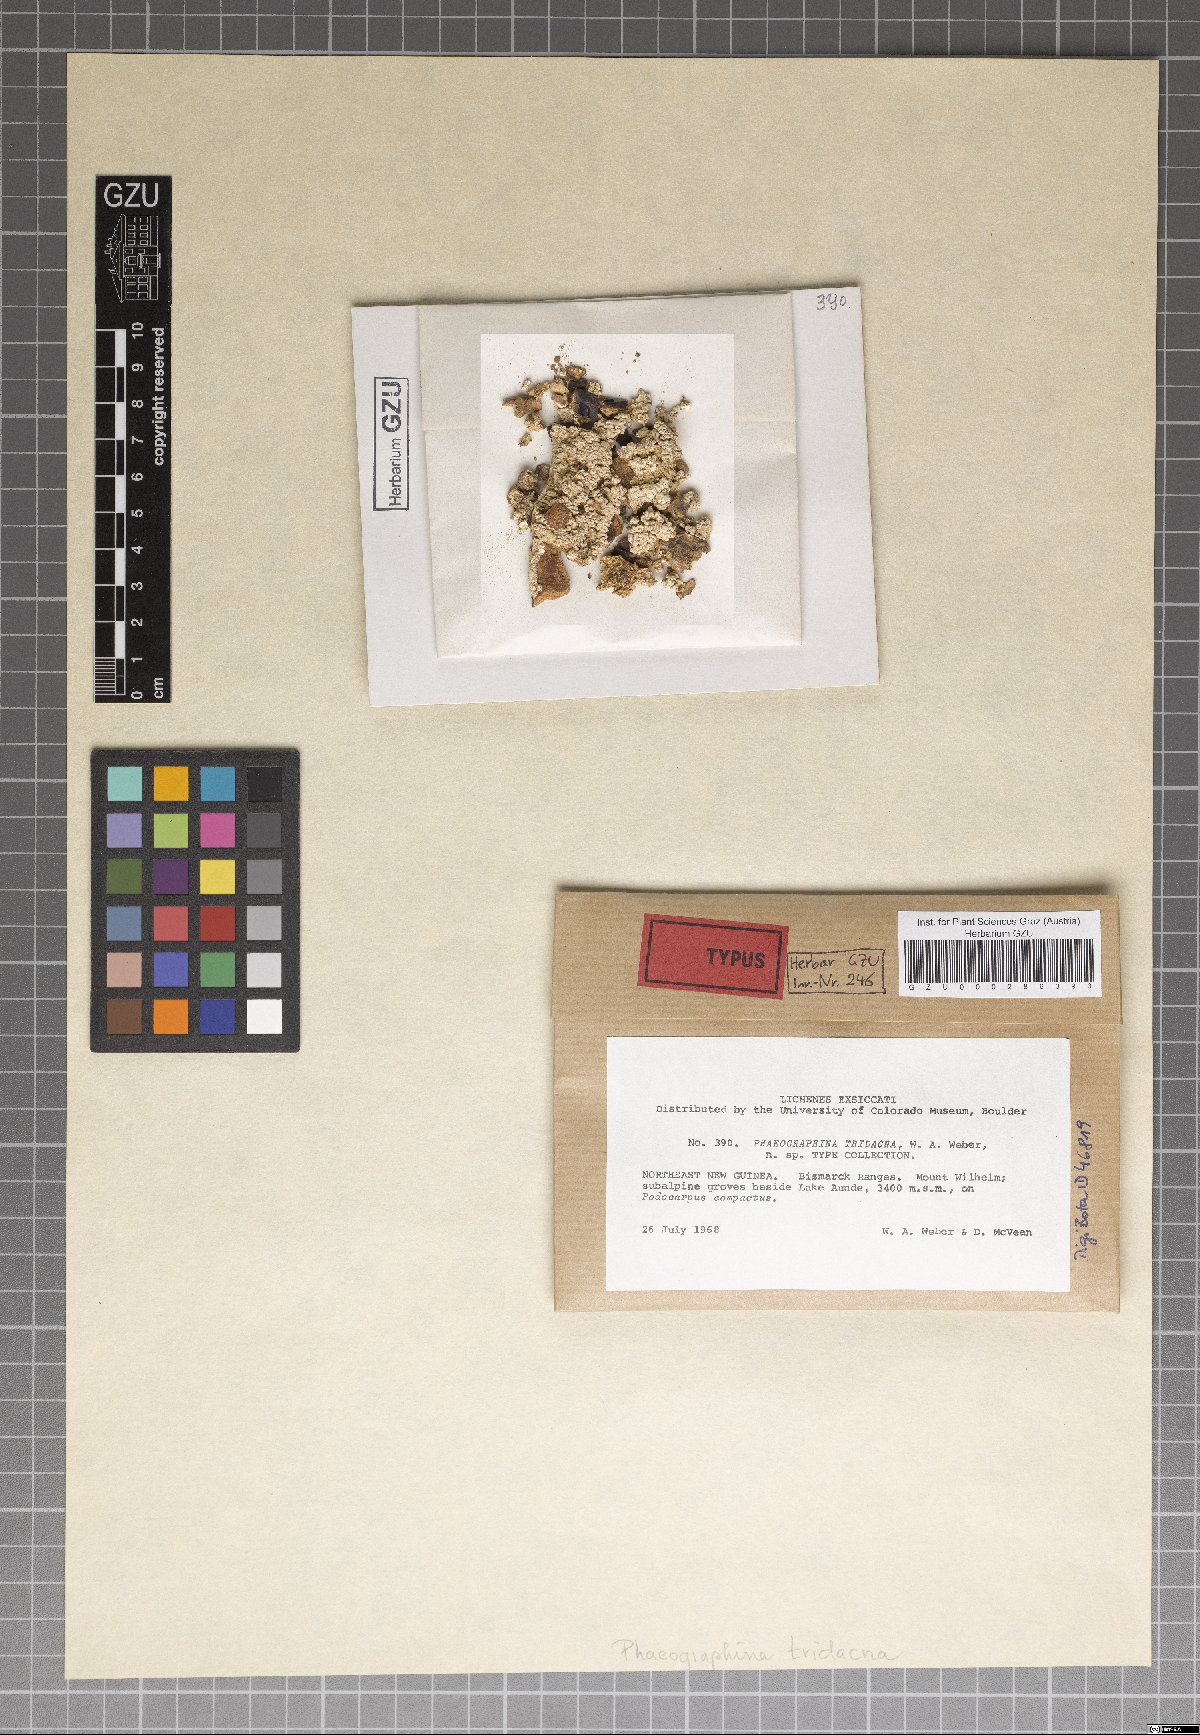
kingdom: Fungi
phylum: Ascomycota
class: Lecanoromycetes
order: Ostropales
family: Graphidaceae
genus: Phaeographina
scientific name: Phaeographina tridacna
